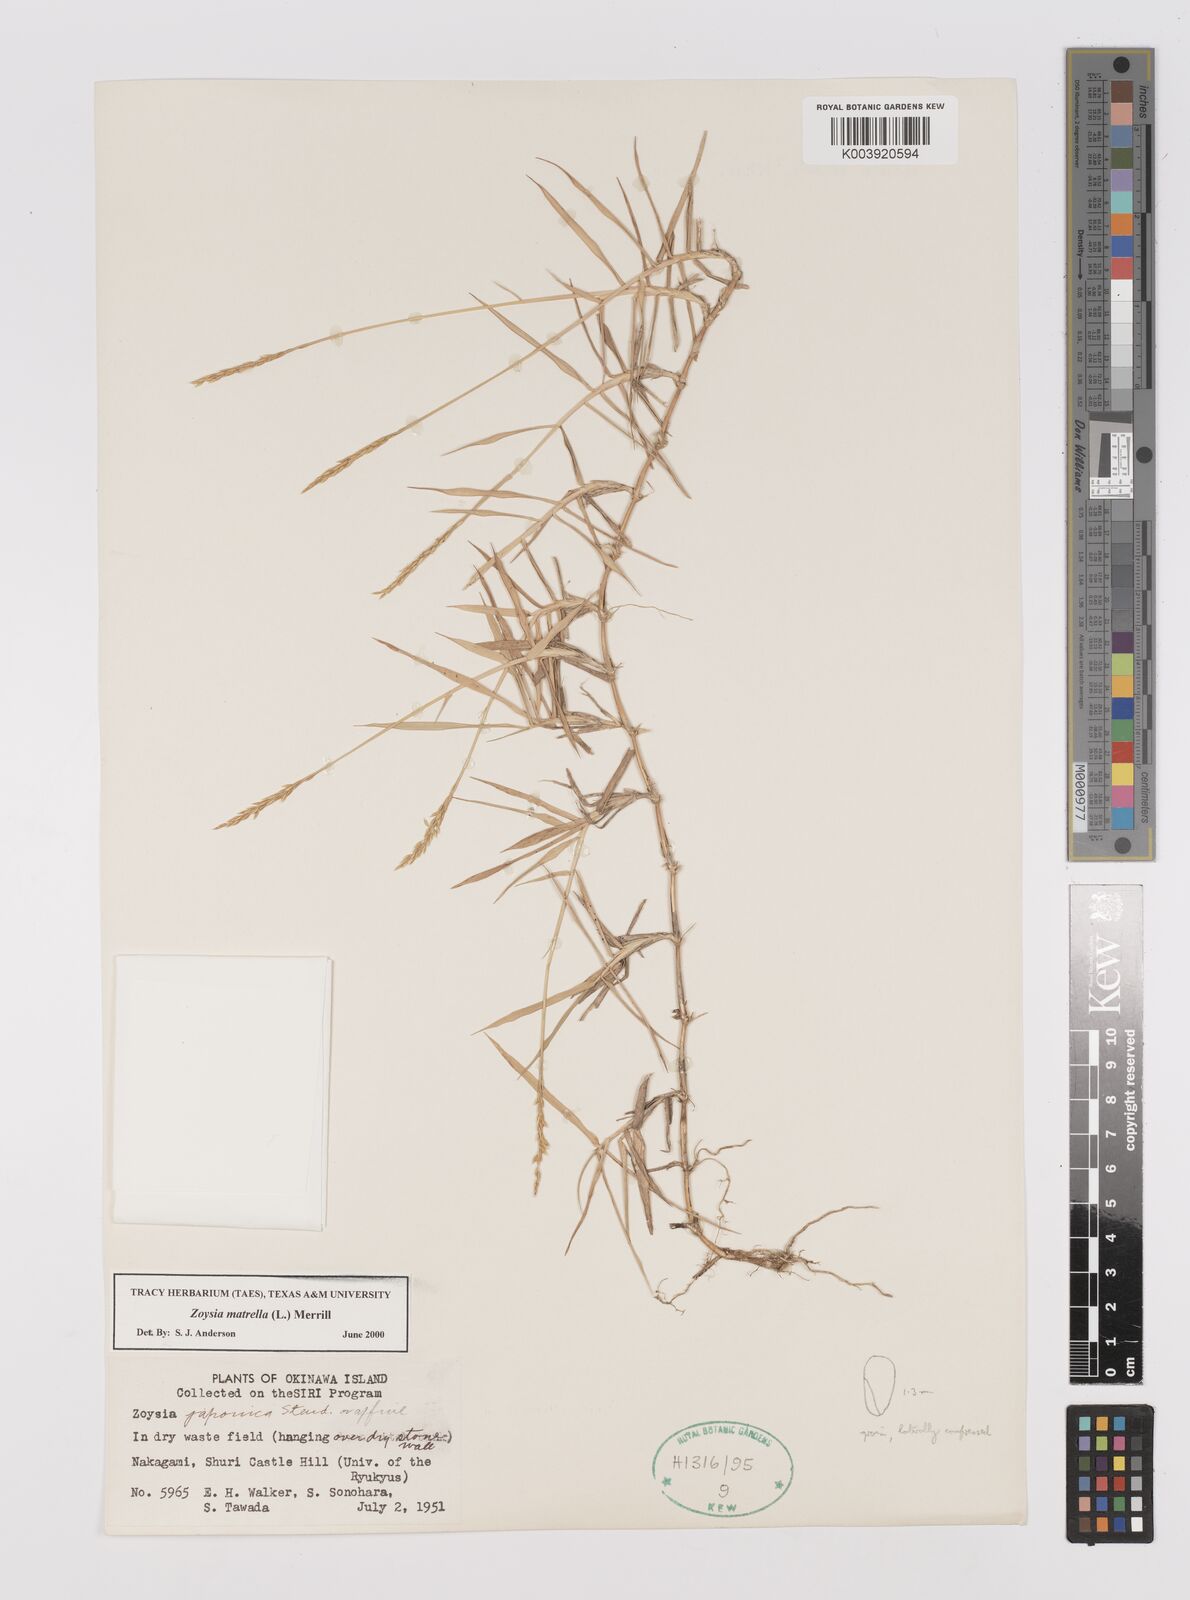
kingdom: Plantae
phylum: Tracheophyta
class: Liliopsida
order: Poales
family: Poaceae
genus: Zoysia
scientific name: Zoysia matrella
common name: Manila grass
